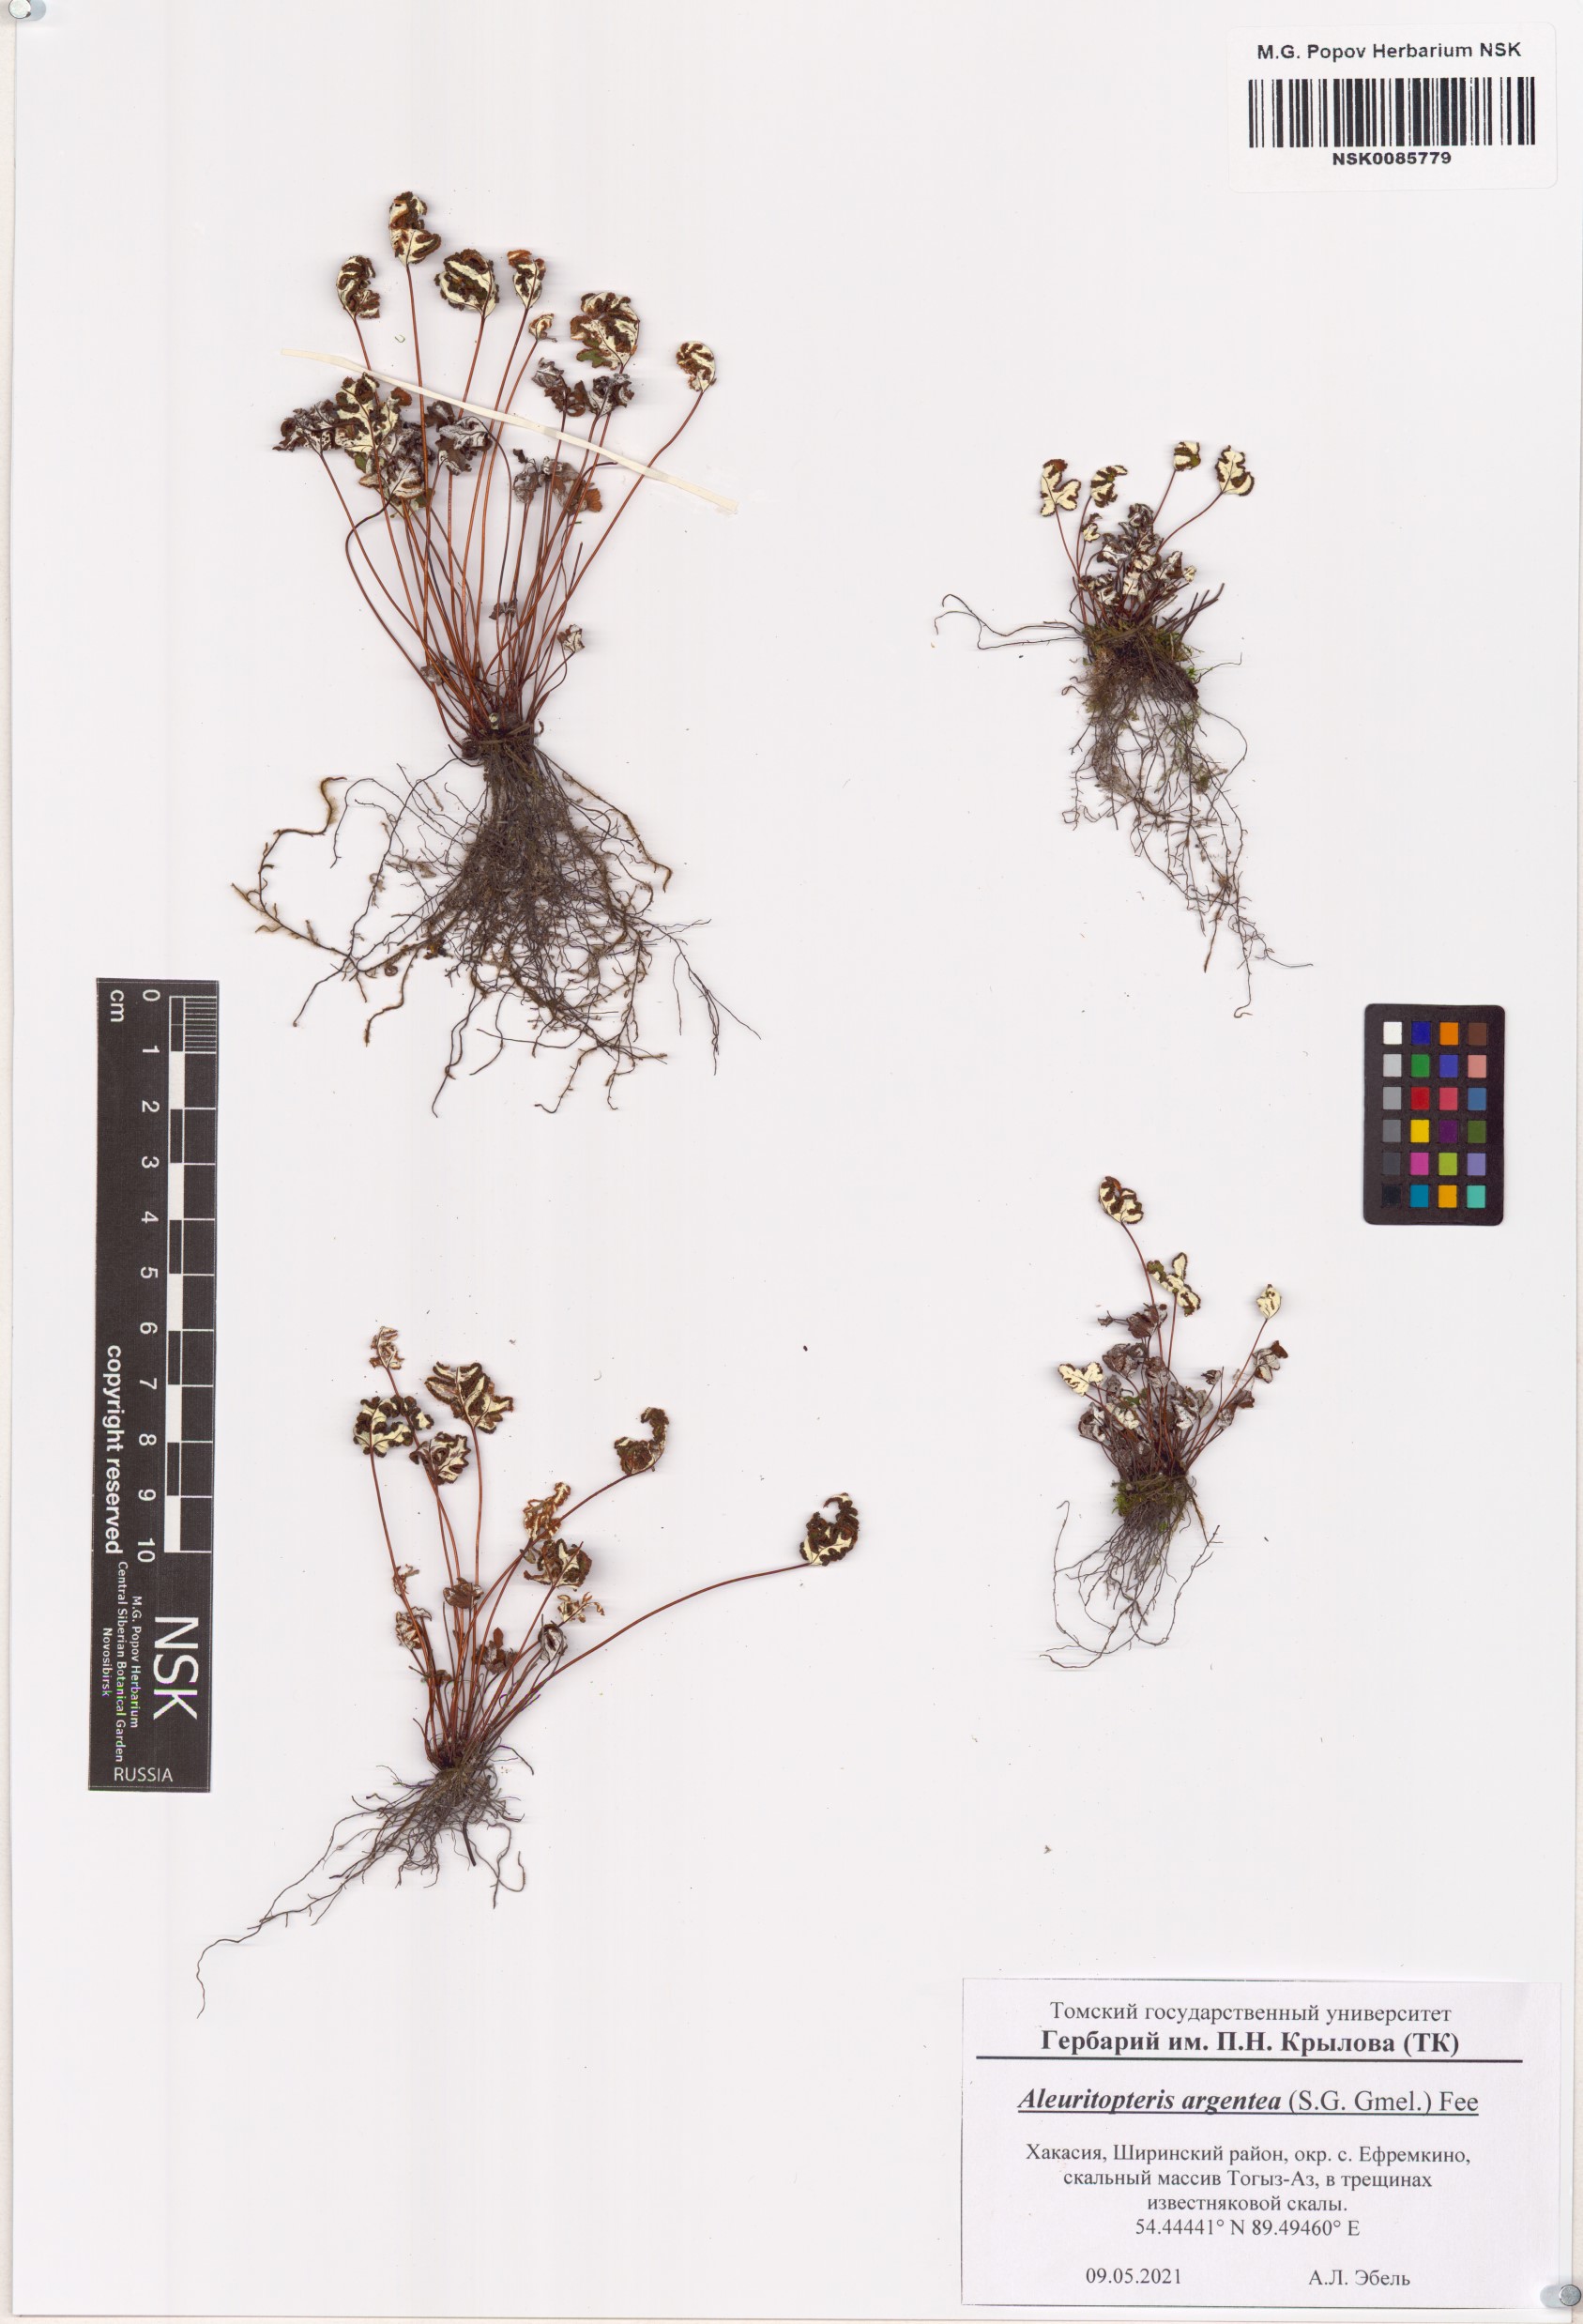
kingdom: Plantae
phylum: Tracheophyta
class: Polypodiopsida
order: Polypodiales
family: Pteridaceae
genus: Aleuritopteris
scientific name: Aleuritopteris argentea
